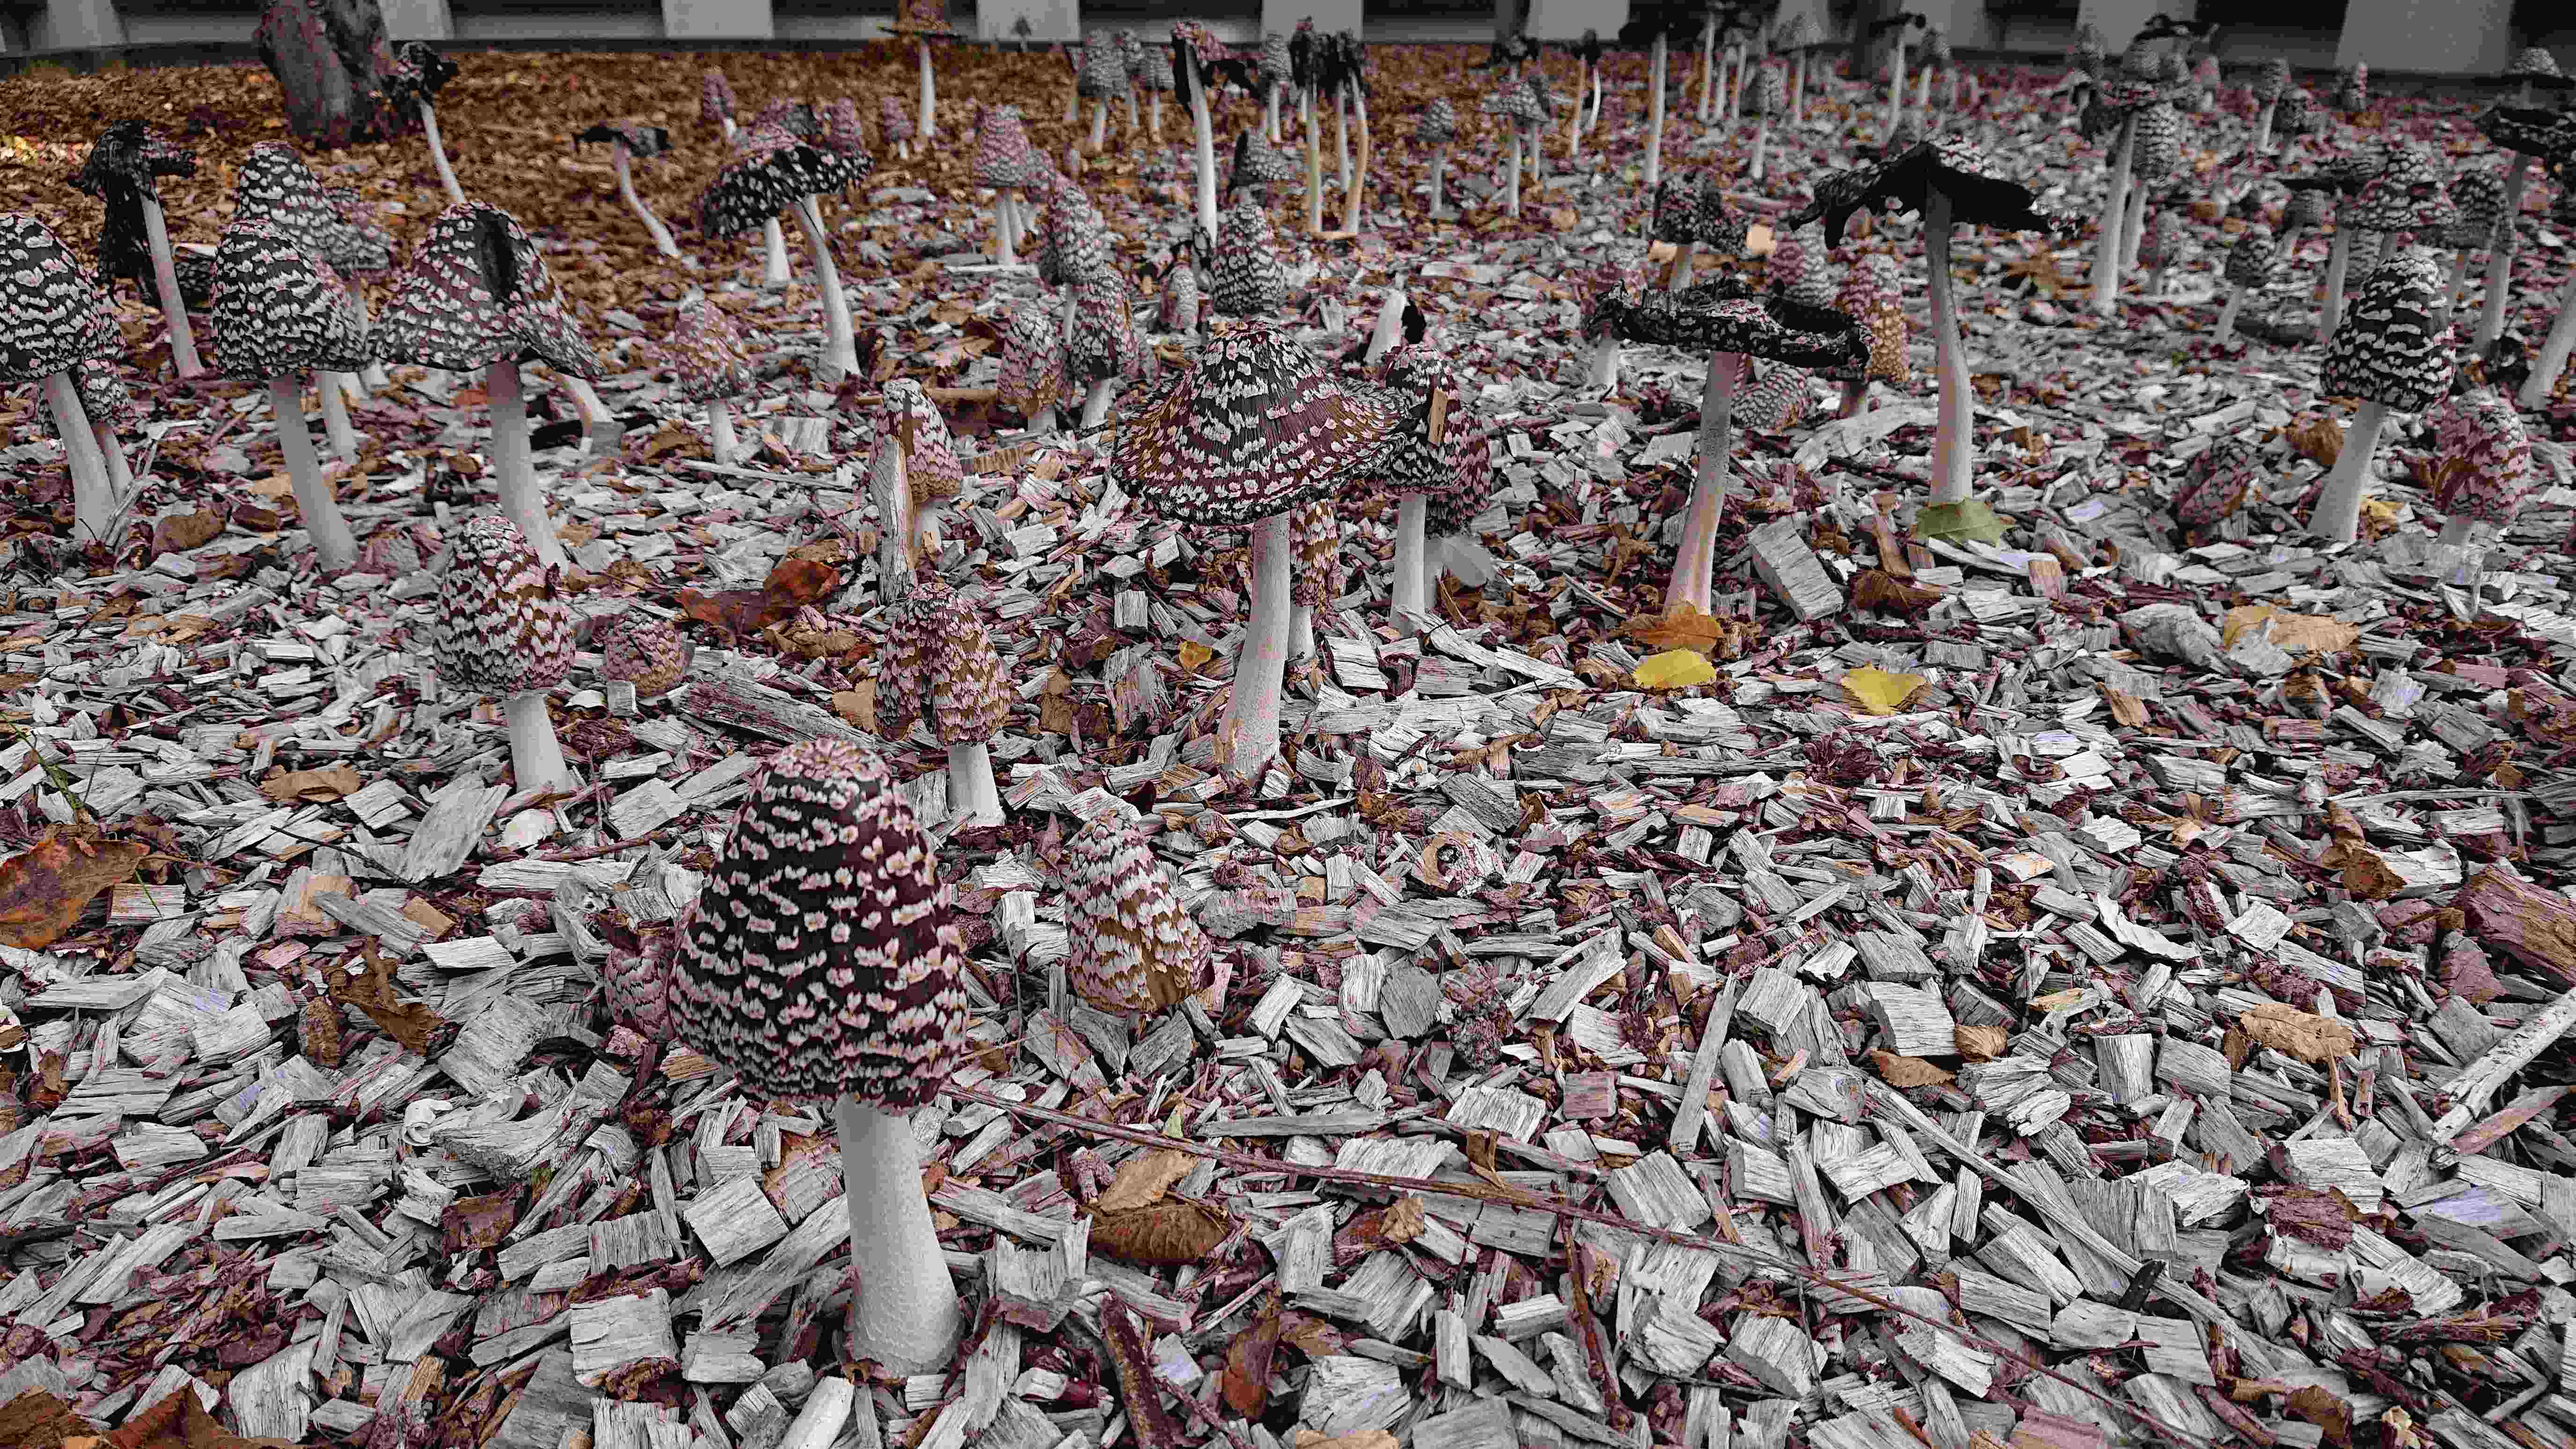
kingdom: Fungi
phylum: Basidiomycota
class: Agaricomycetes
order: Agaricales
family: Psathyrellaceae
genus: Coprinopsis
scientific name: Coprinopsis picacea
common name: skade-blækhat
